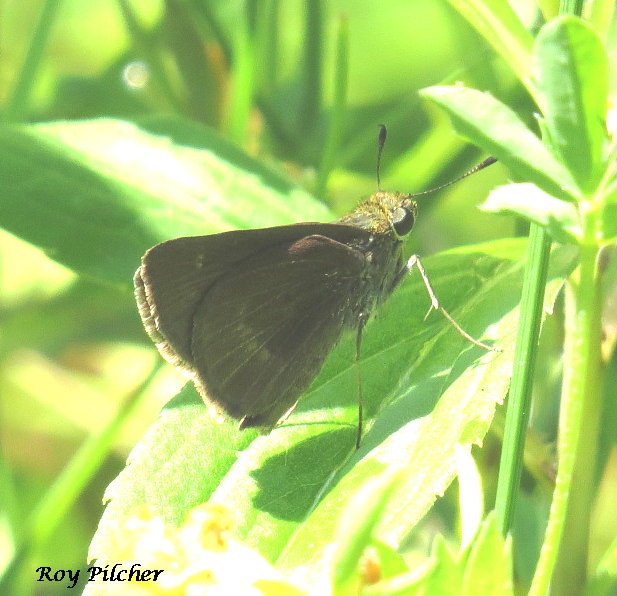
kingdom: Animalia
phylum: Arthropoda
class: Insecta
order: Lepidoptera
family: Hesperiidae
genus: Euphyes
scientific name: Euphyes vestris
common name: Dun Skipper
